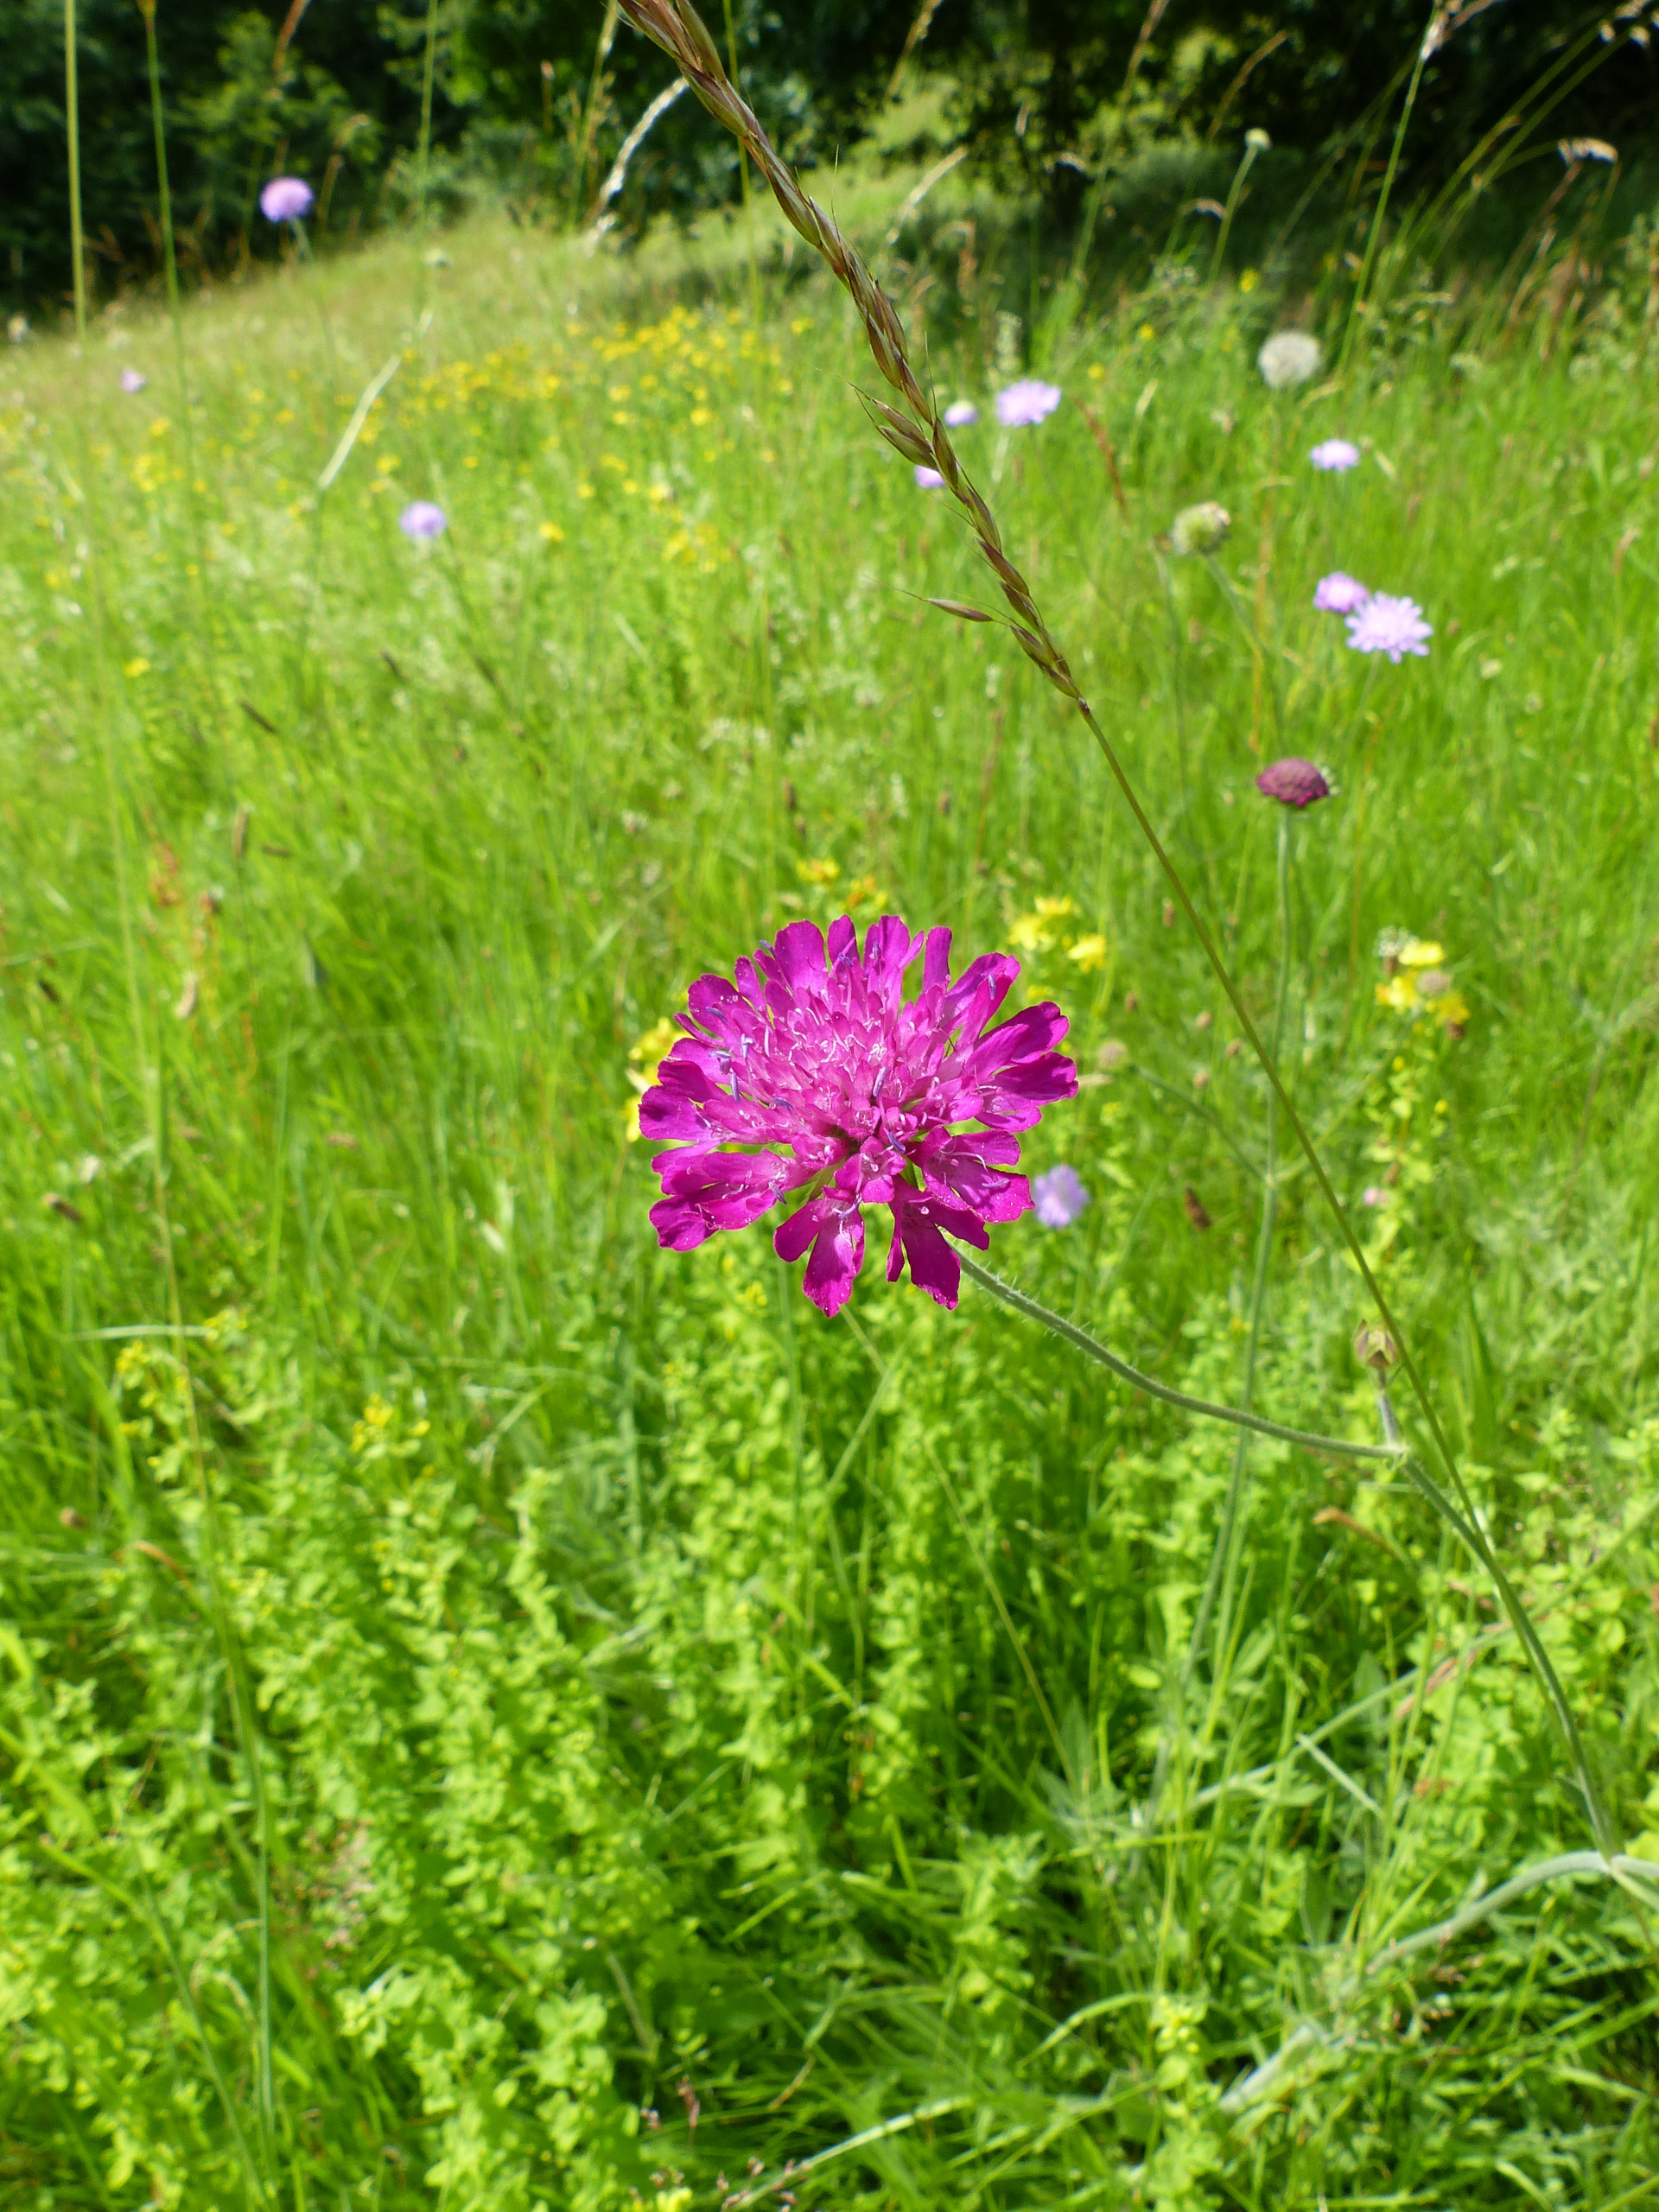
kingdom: Plantae
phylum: Tracheophyta
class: Magnoliopsida
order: Dipsacales
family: Caprifoliaceae
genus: Knautia
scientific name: Knautia arvensis
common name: Blåhat
